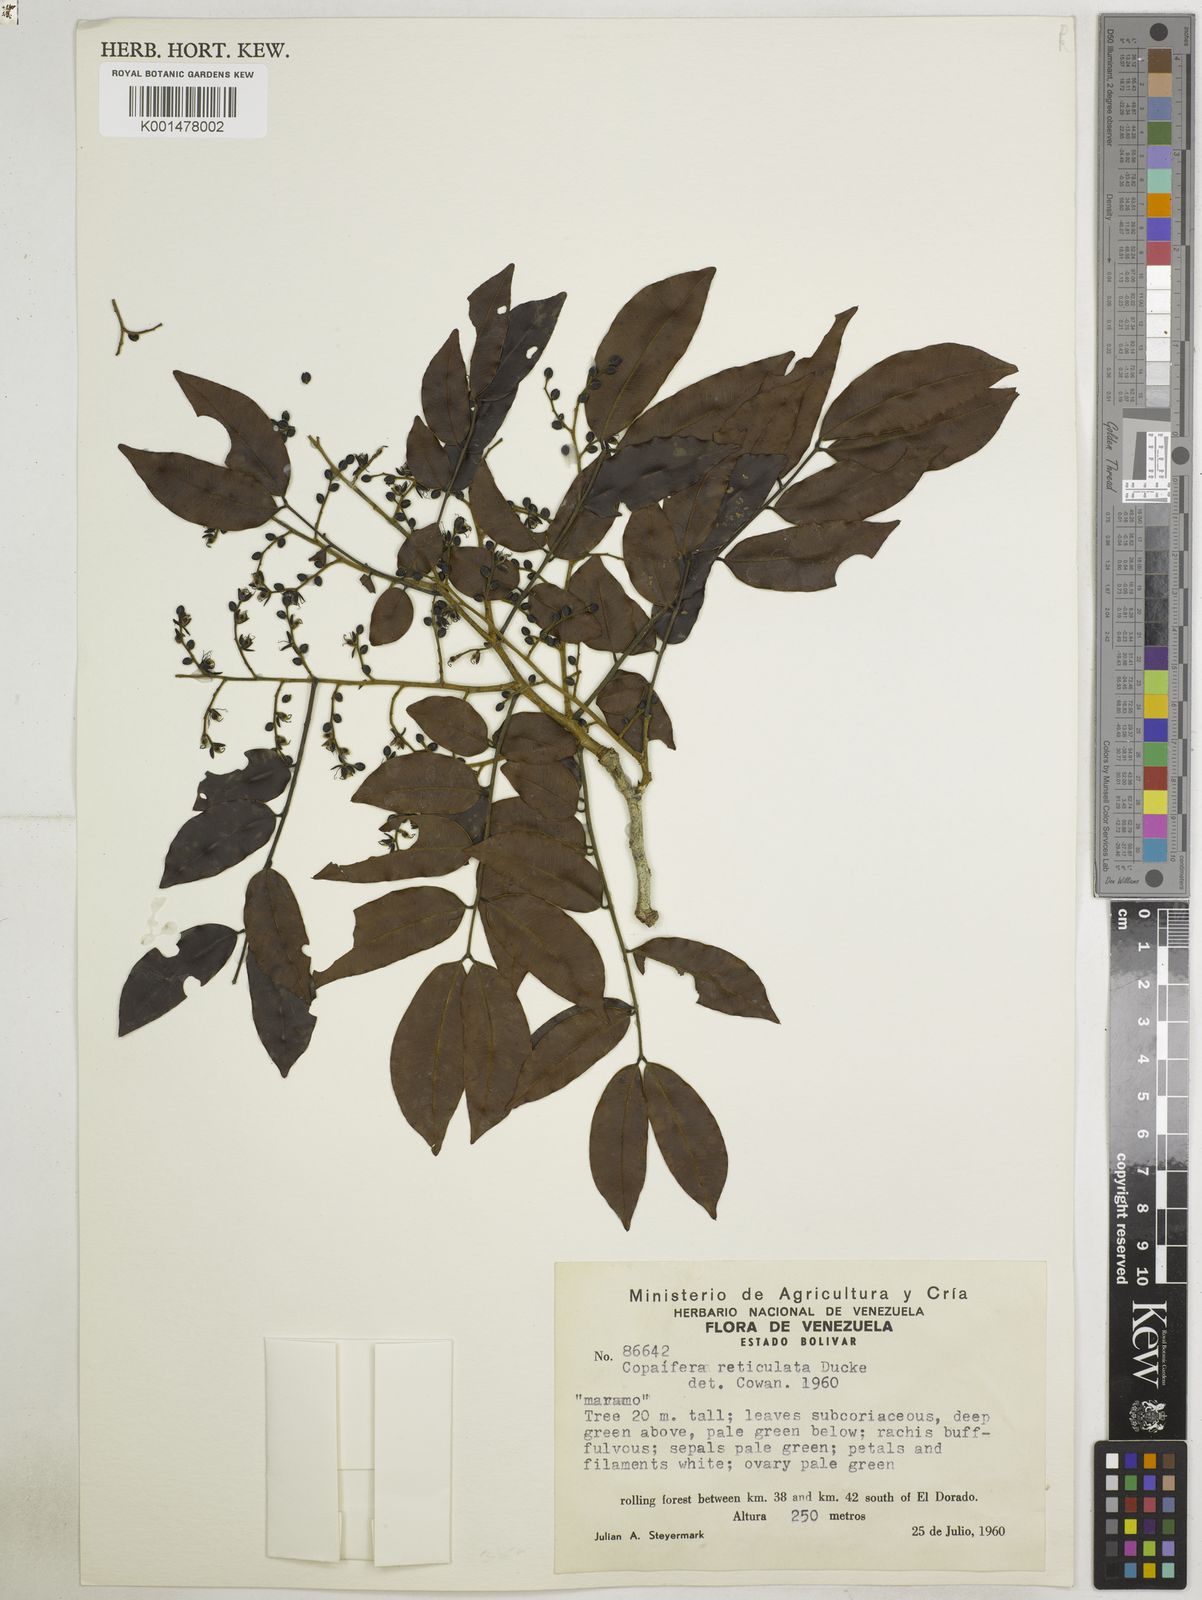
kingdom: Plantae
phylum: Tracheophyta
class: Magnoliopsida
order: Fabales
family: Fabaceae
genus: Copaifera
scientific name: Copaifera copaibo
